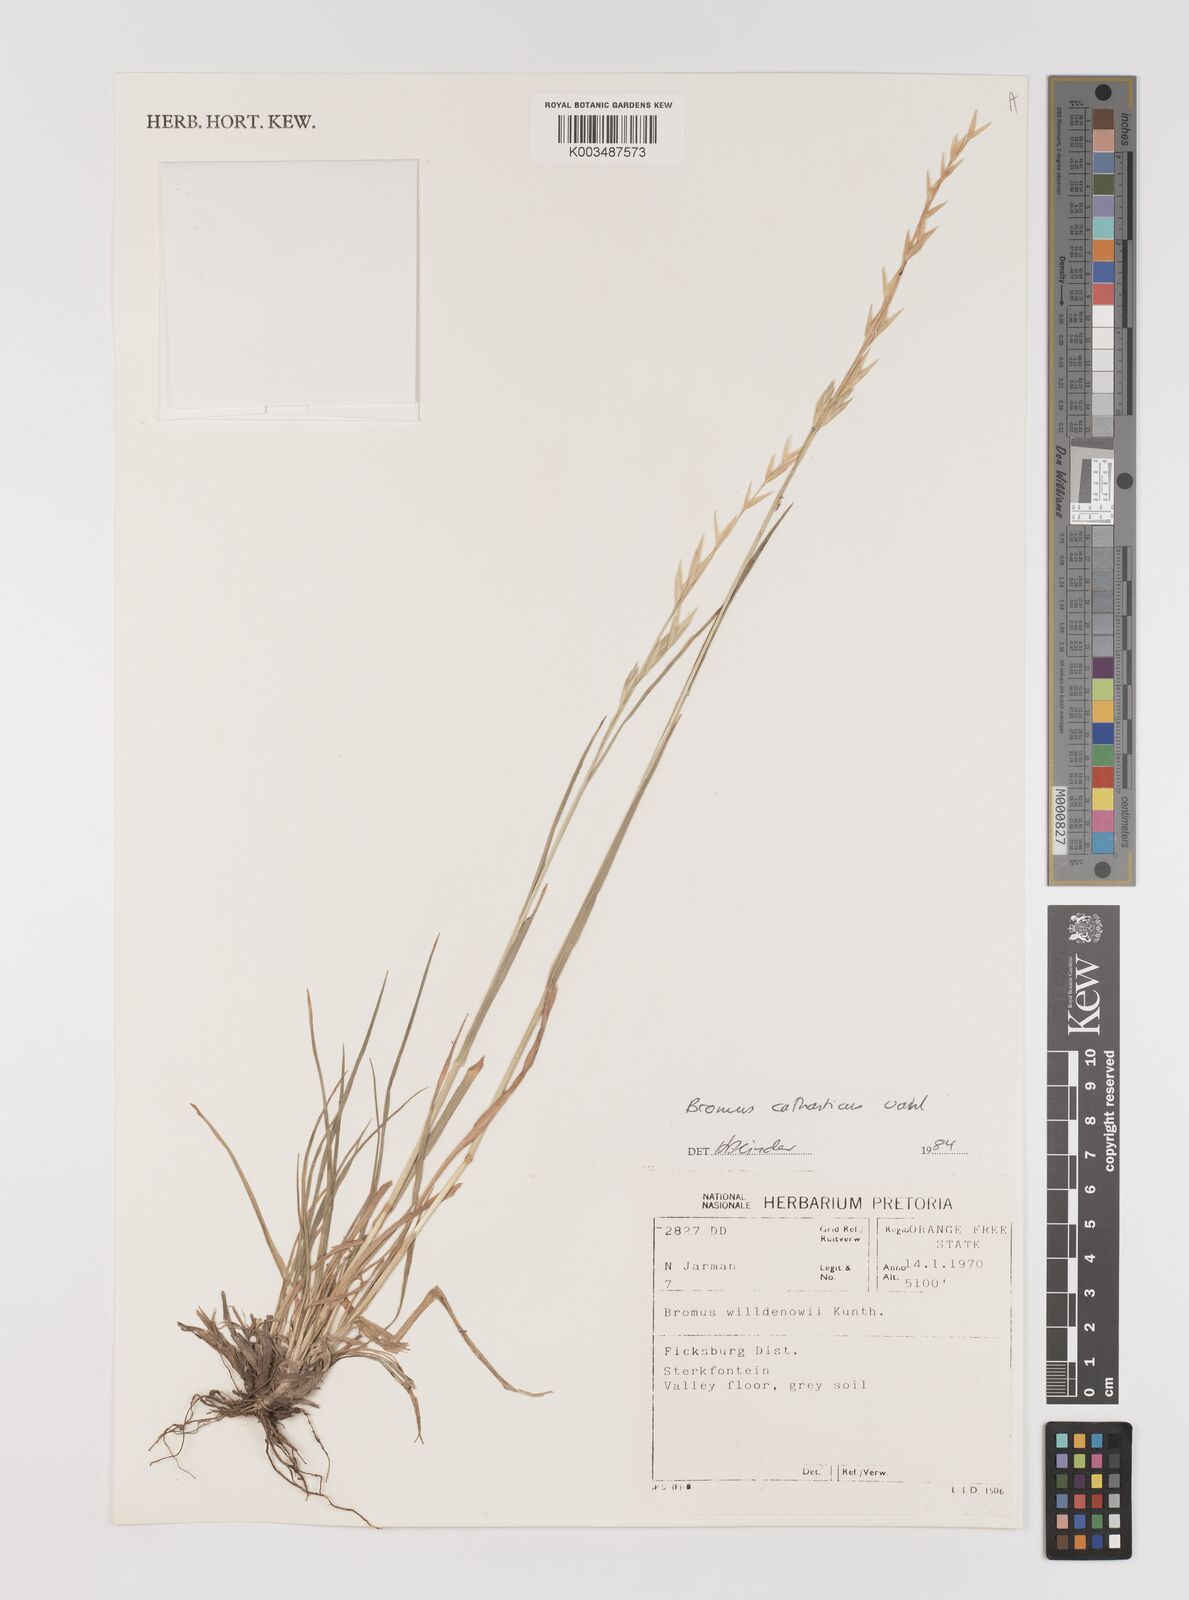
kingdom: Plantae
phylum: Tracheophyta
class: Liliopsida
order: Poales
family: Poaceae
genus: Bromus
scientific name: Bromus catharticus
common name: Rescuegrass
